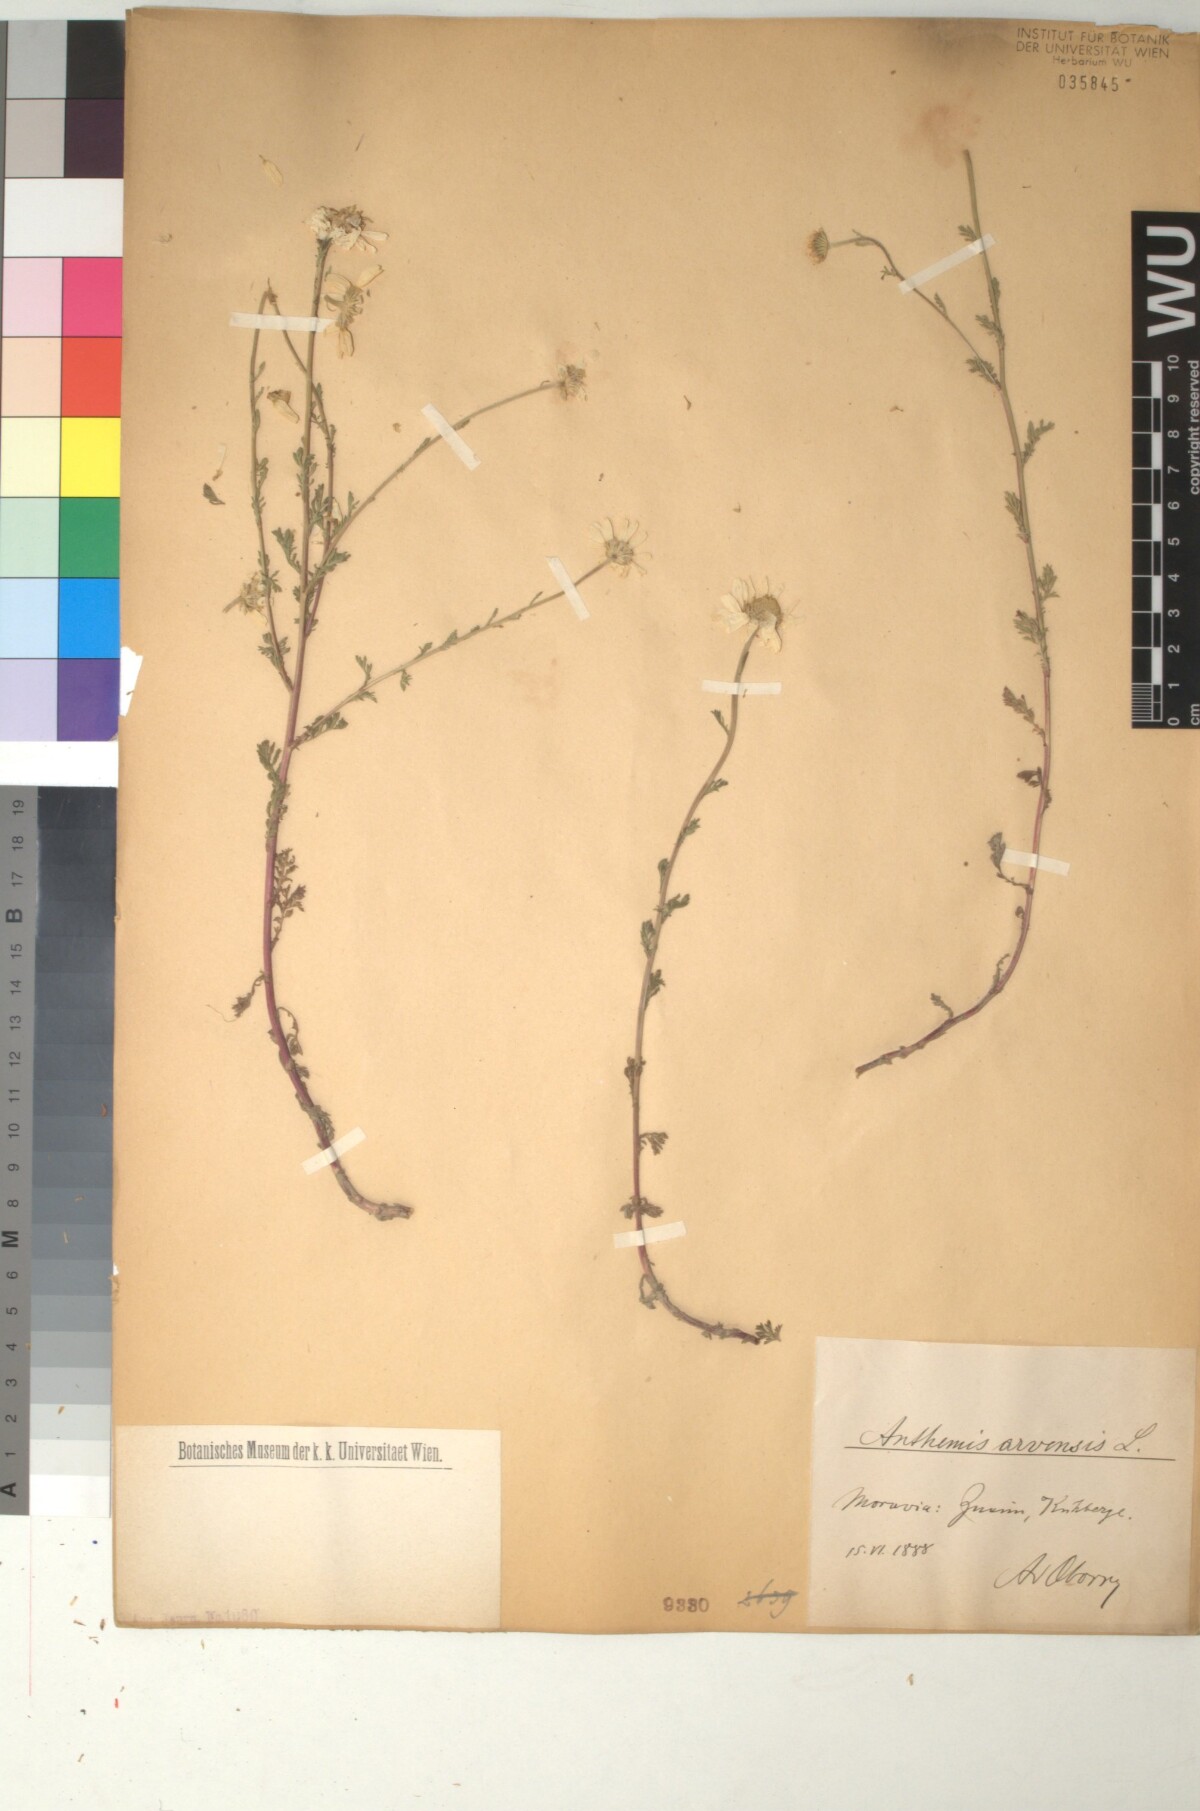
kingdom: Plantae
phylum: Tracheophyta
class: Magnoliopsida
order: Asterales
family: Asteraceae
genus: Anthemis
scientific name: Anthemis arvensis
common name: Corn chamomile
